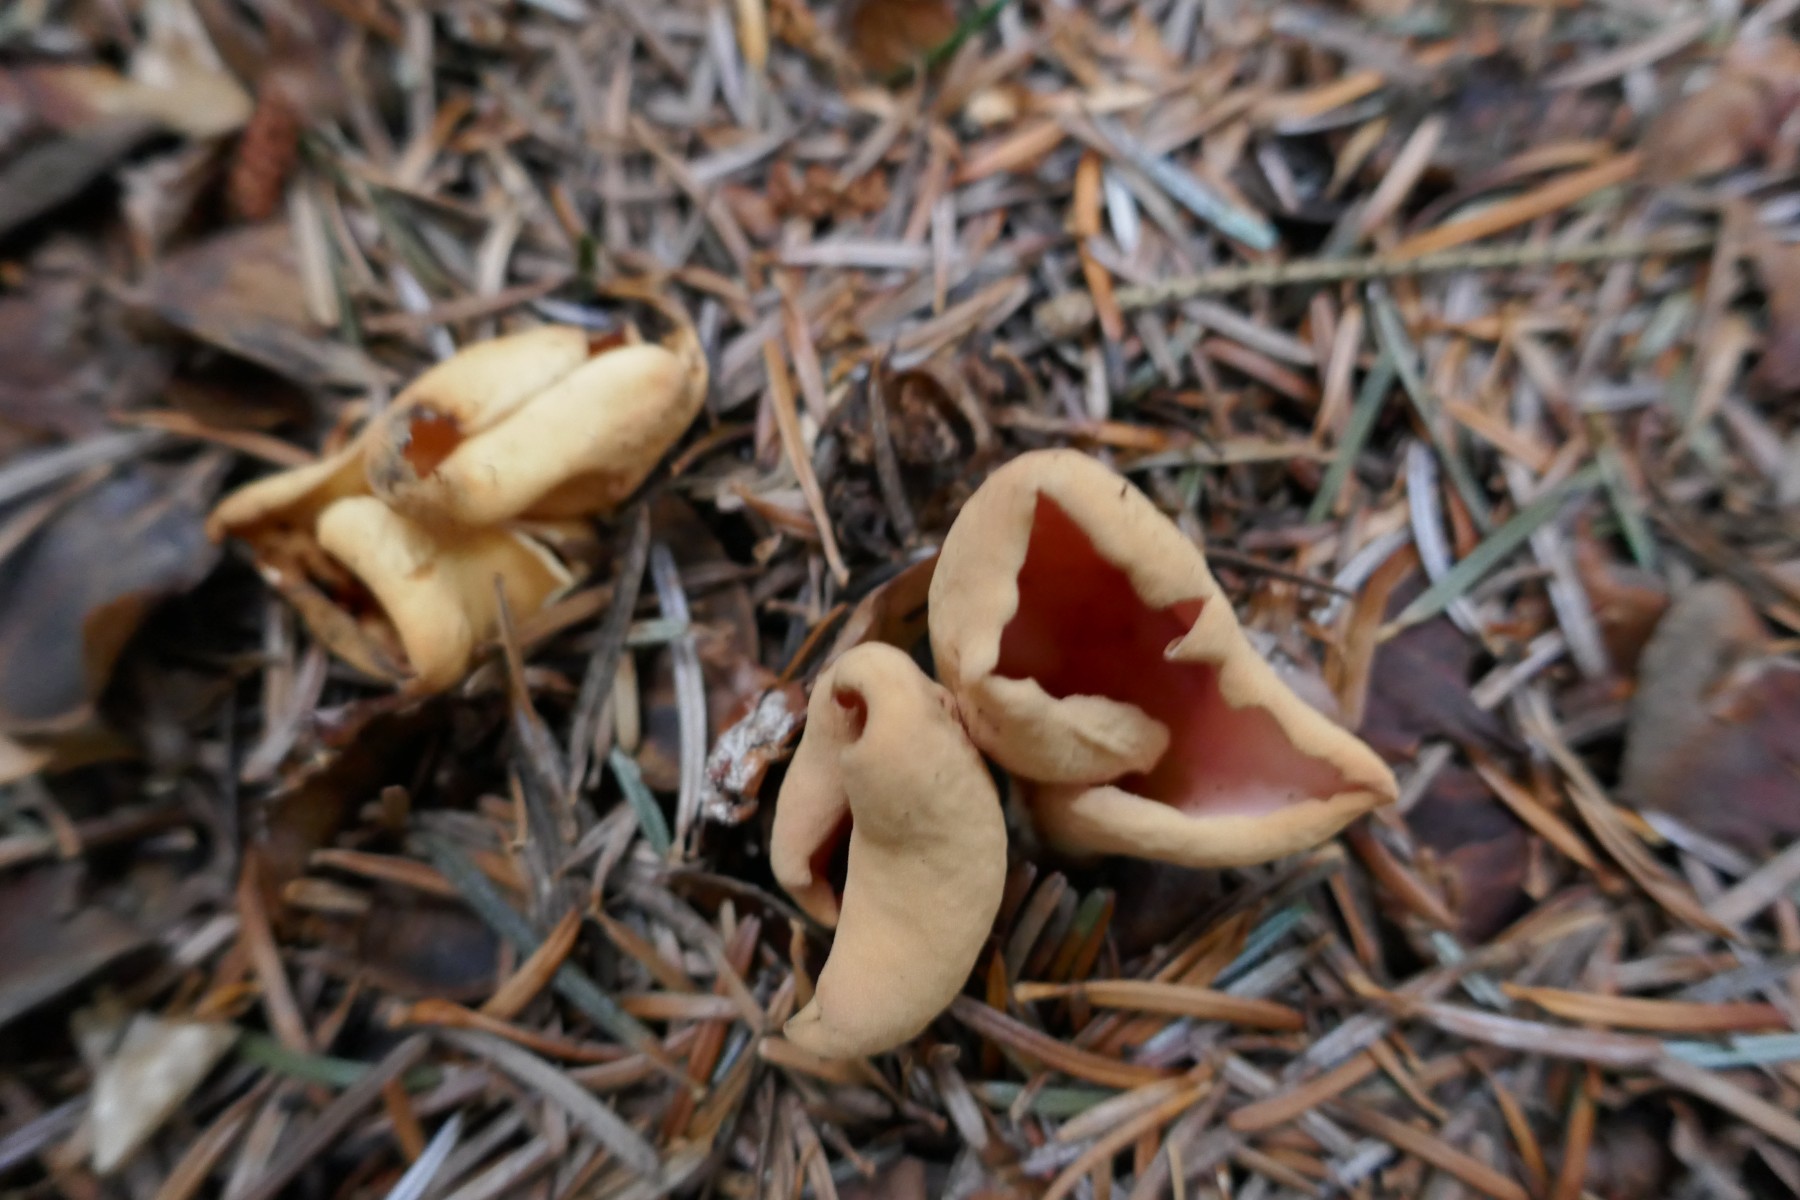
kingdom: Fungi
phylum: Ascomycota
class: Pezizomycetes
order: Pezizales
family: Otideaceae
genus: Otidea
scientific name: Otidea onotica
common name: æsel-ørebæger
